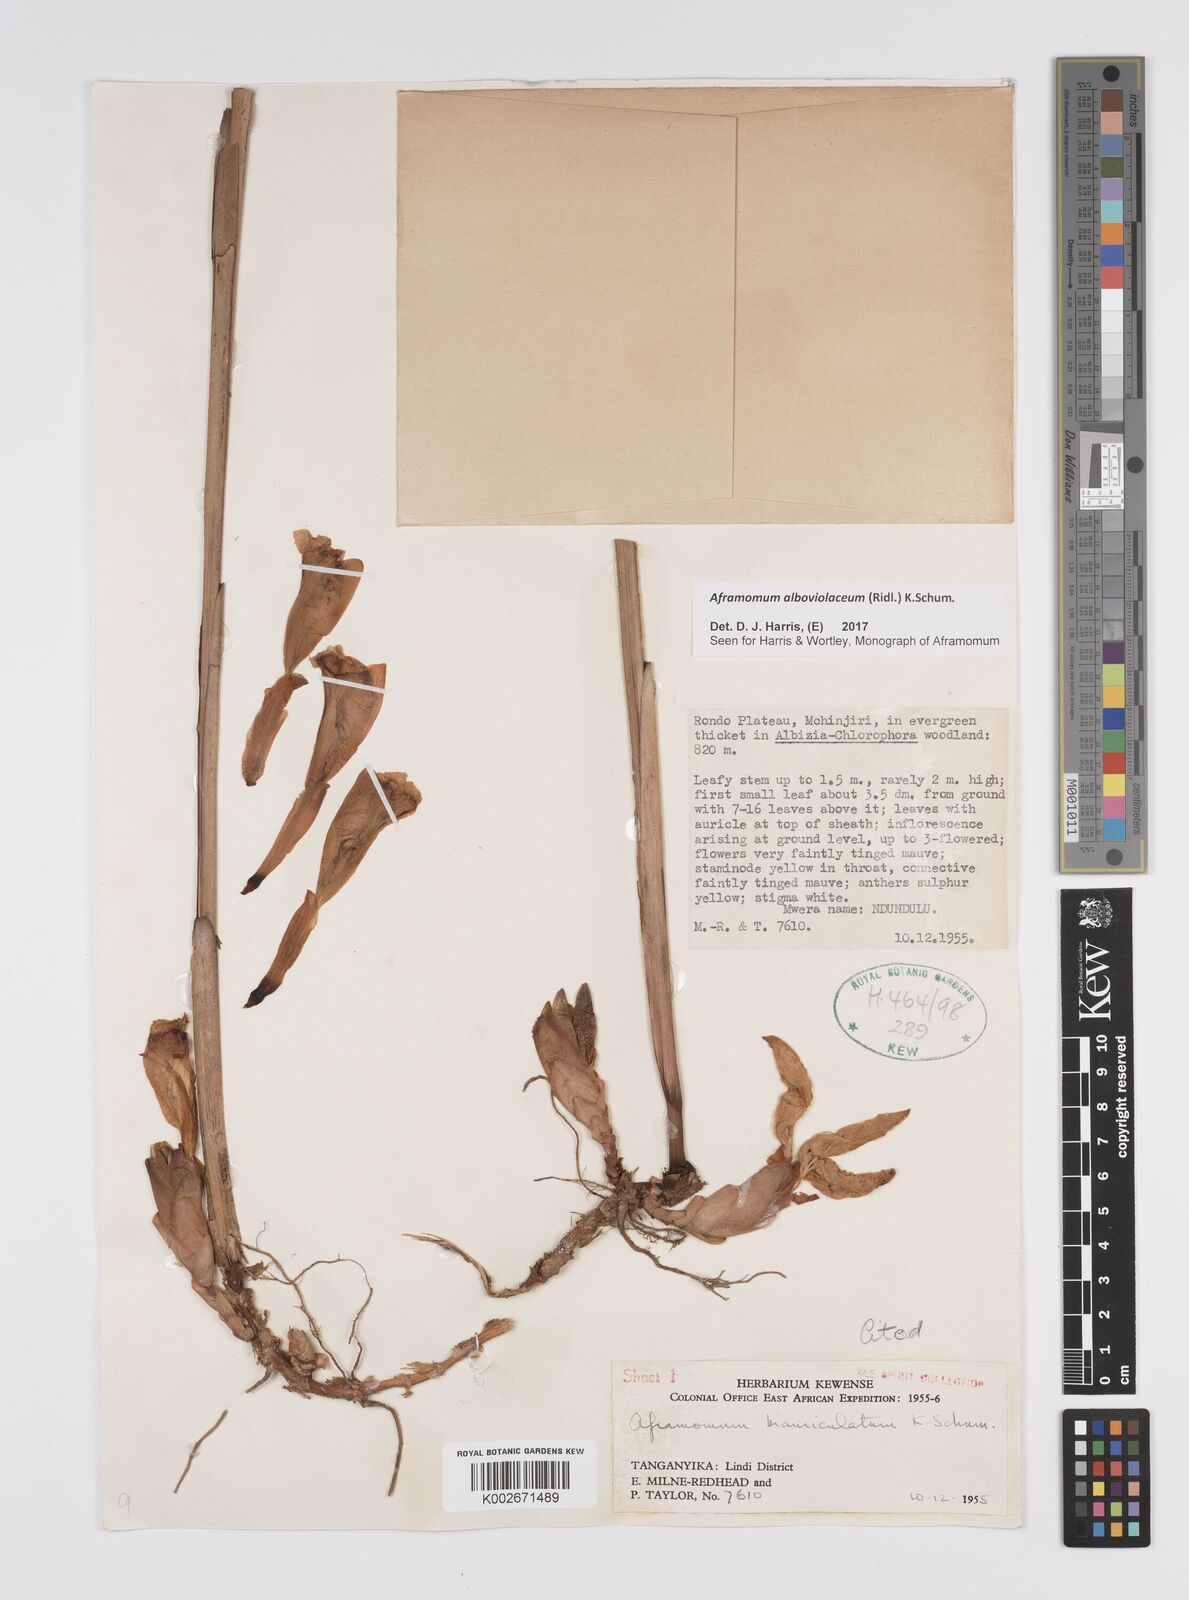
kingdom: Plantae
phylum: Tracheophyta
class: Liliopsida
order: Zingiberales
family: Zingiberaceae
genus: Aframomum
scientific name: Aframomum alboviolaceum
